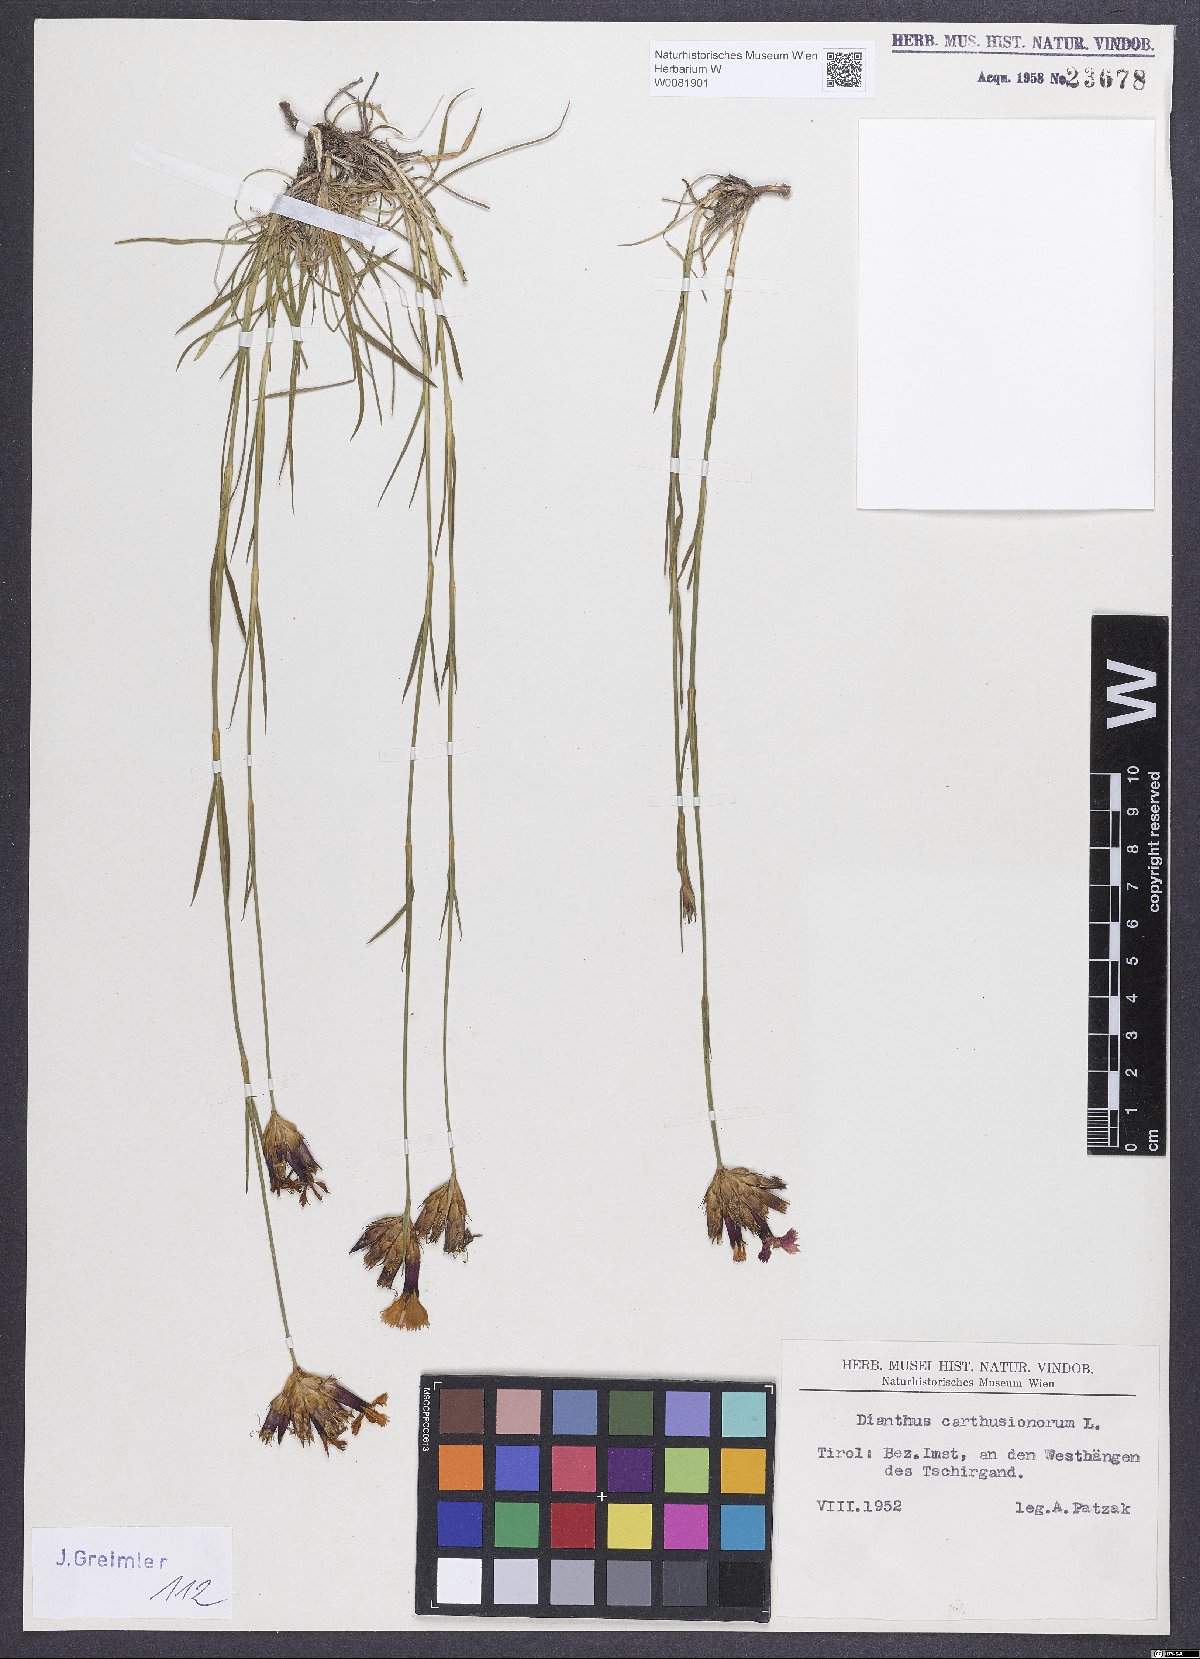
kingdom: Plantae
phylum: Tracheophyta
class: Magnoliopsida
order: Caryophyllales
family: Caryophyllaceae
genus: Dianthus
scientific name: Dianthus carthusianorum
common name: Carthusian pink
